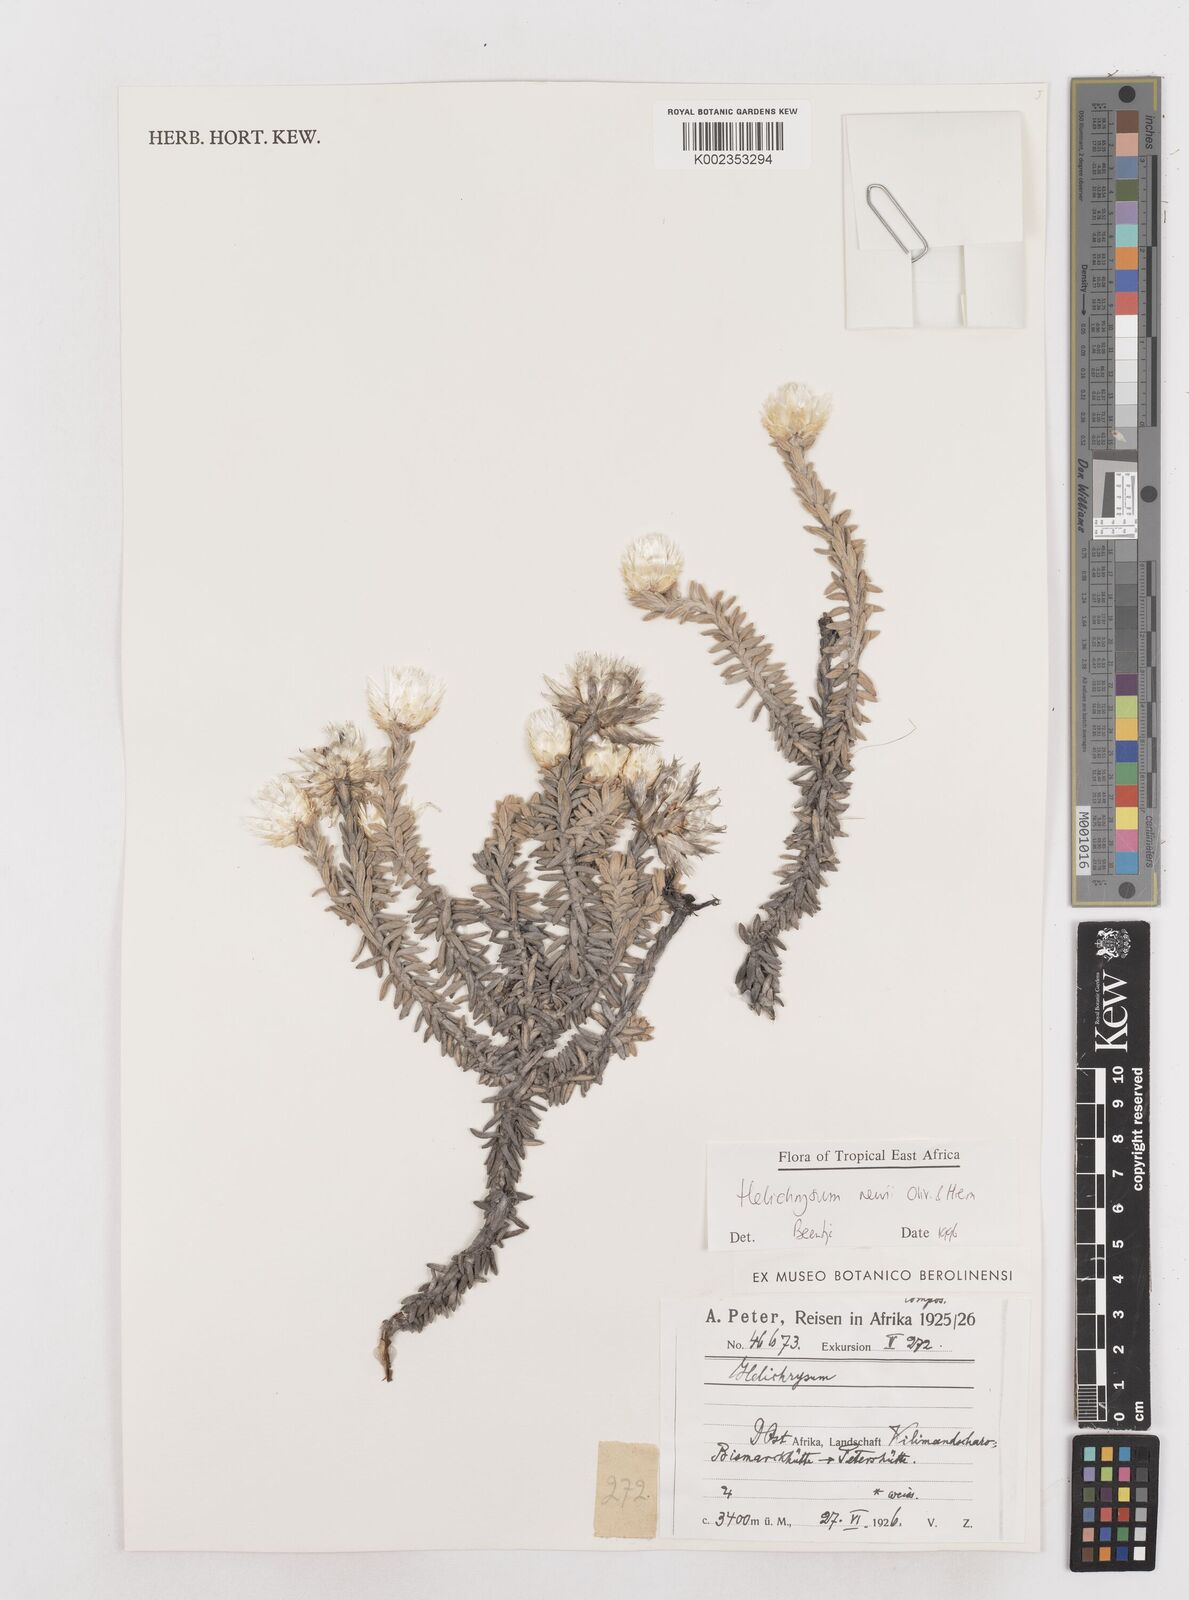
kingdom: Plantae
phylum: Tracheophyta
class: Magnoliopsida
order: Asterales
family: Asteraceae
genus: Helichrysum
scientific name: Helichrysum newii
